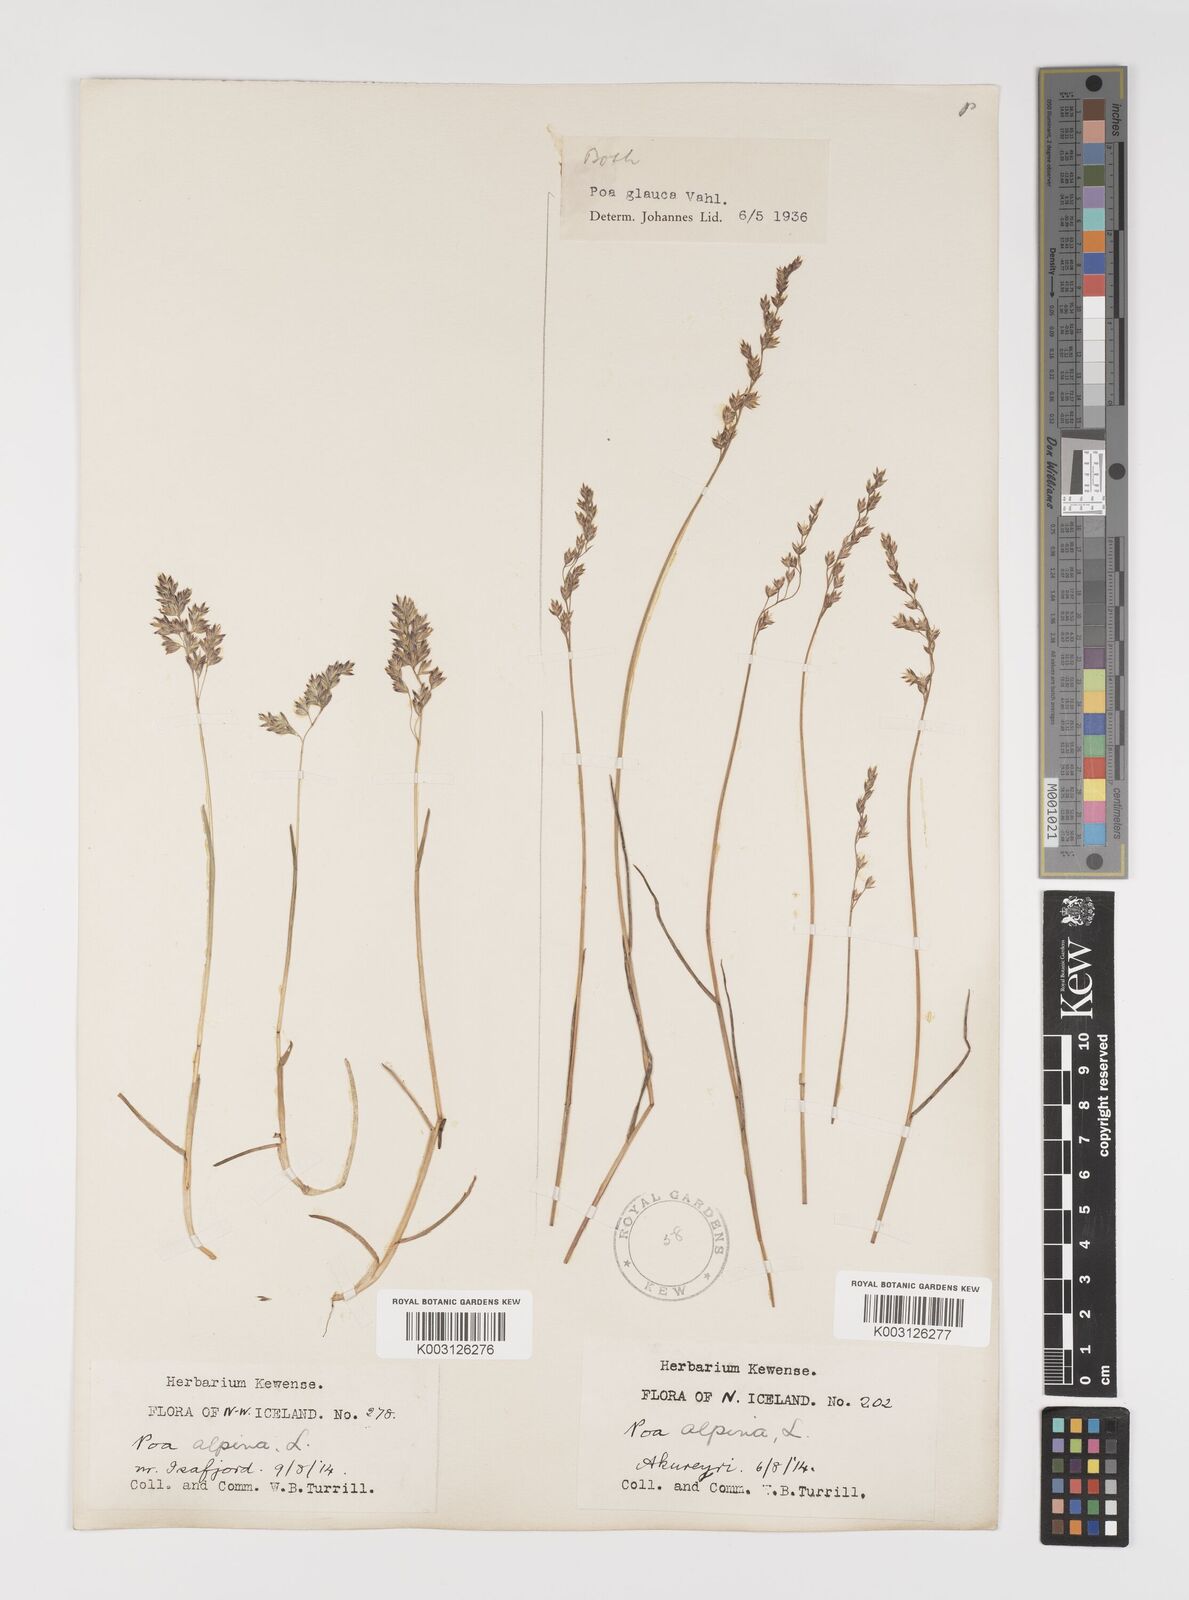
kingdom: Plantae
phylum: Tracheophyta
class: Liliopsida
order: Poales
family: Poaceae
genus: Poa
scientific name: Poa glauca
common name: Glaucous bluegrass
